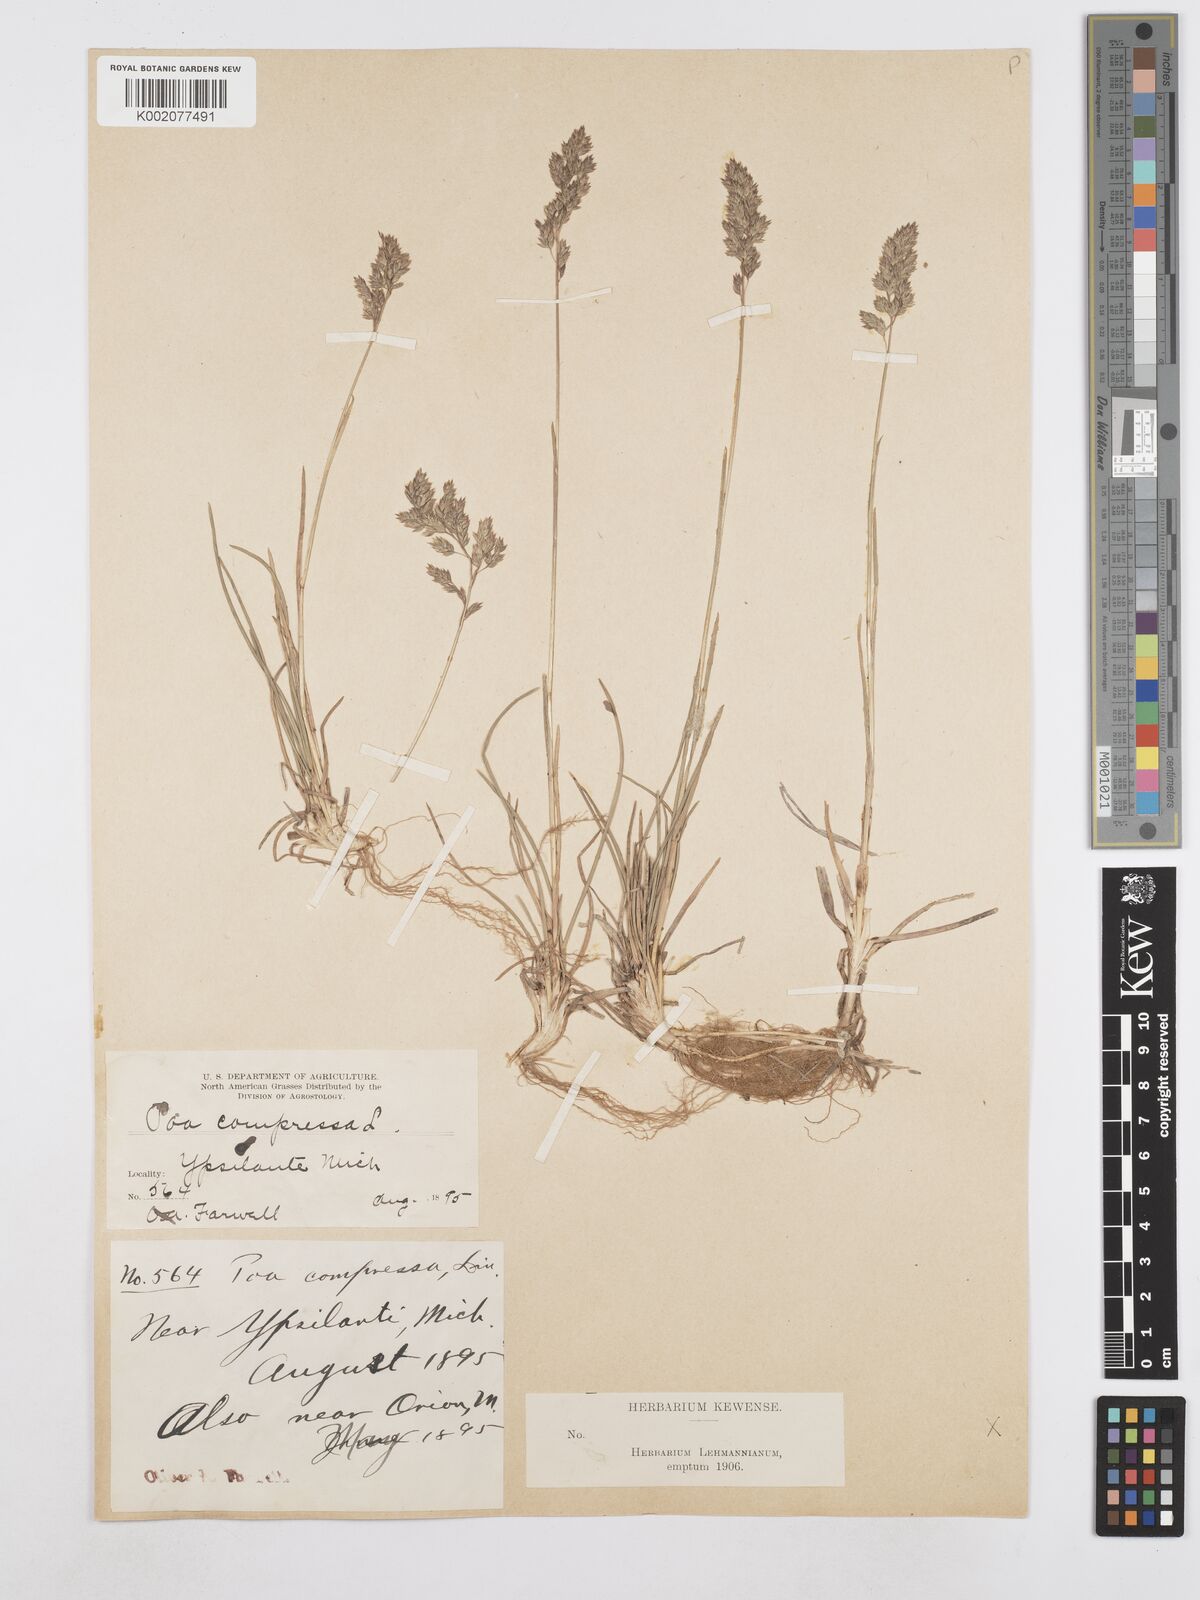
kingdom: Plantae
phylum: Tracheophyta
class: Liliopsida
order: Poales
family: Poaceae
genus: Poa
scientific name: Poa compressa
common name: Canada bluegrass
